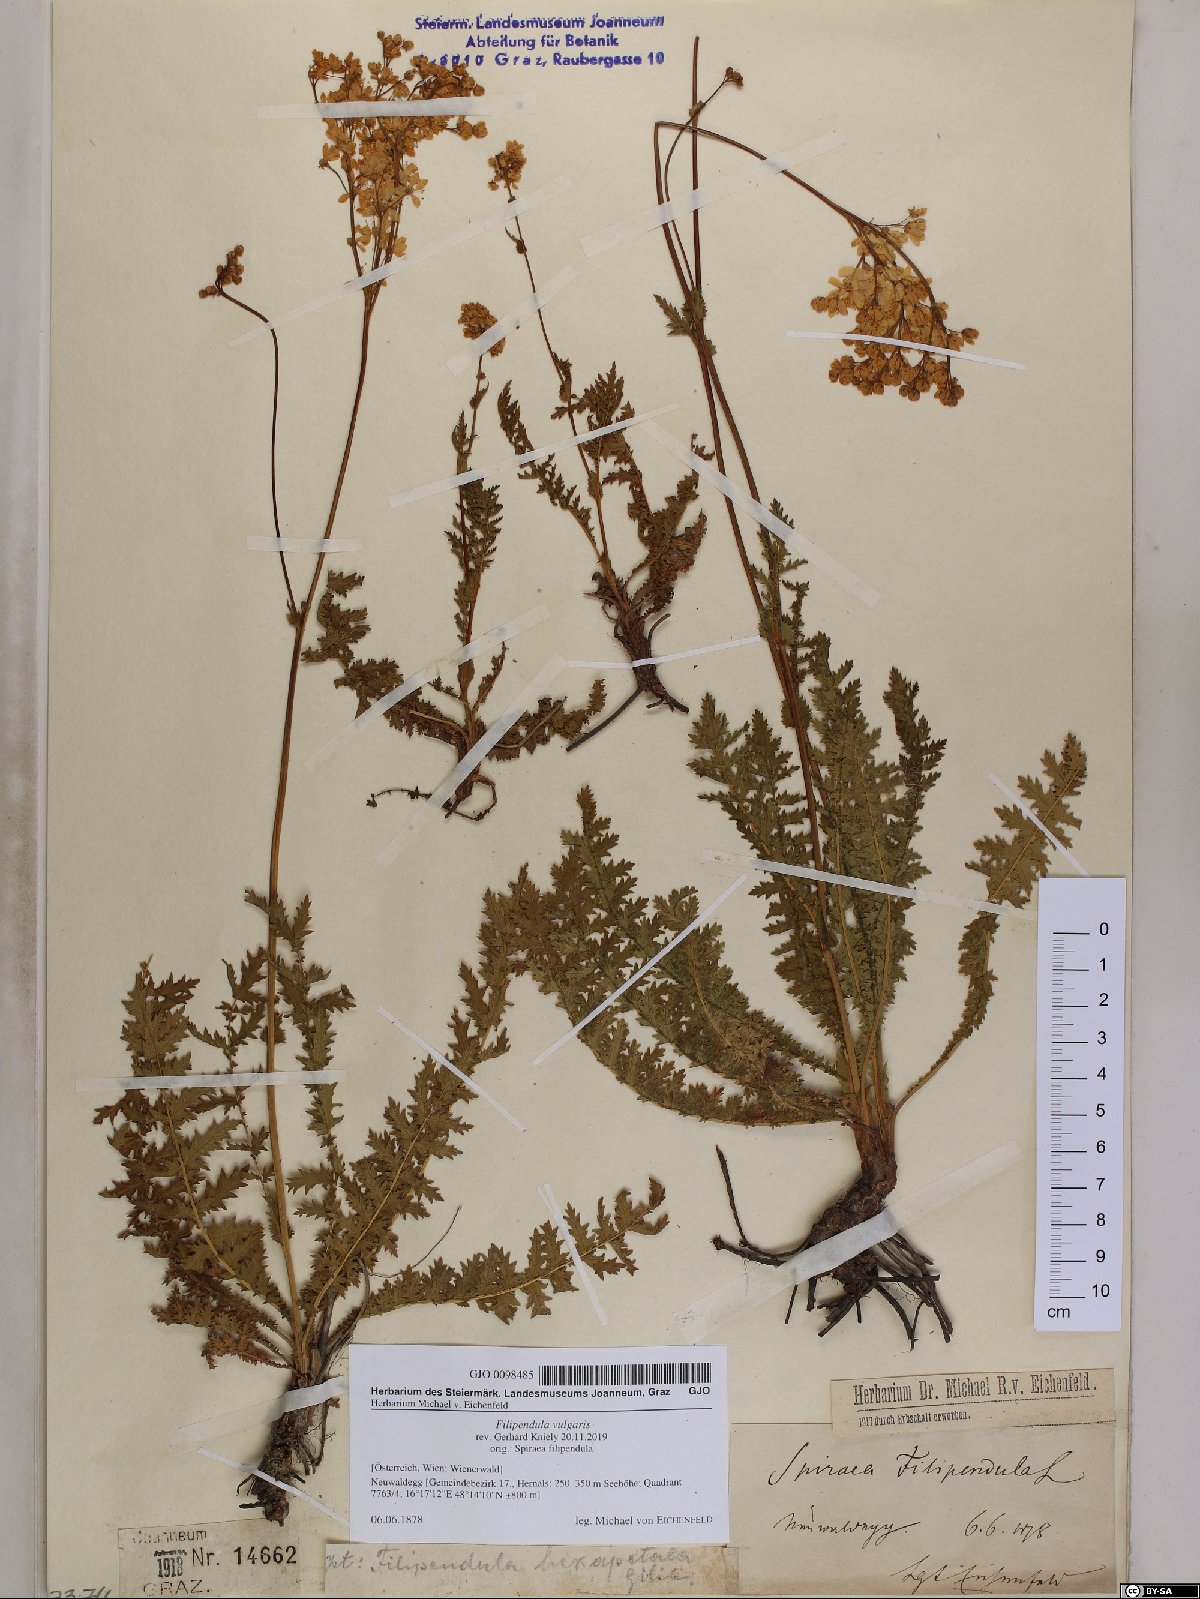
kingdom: Plantae
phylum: Tracheophyta
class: Magnoliopsida
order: Rosales
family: Rosaceae
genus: Filipendula
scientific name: Filipendula vulgaris
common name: Dropwort
